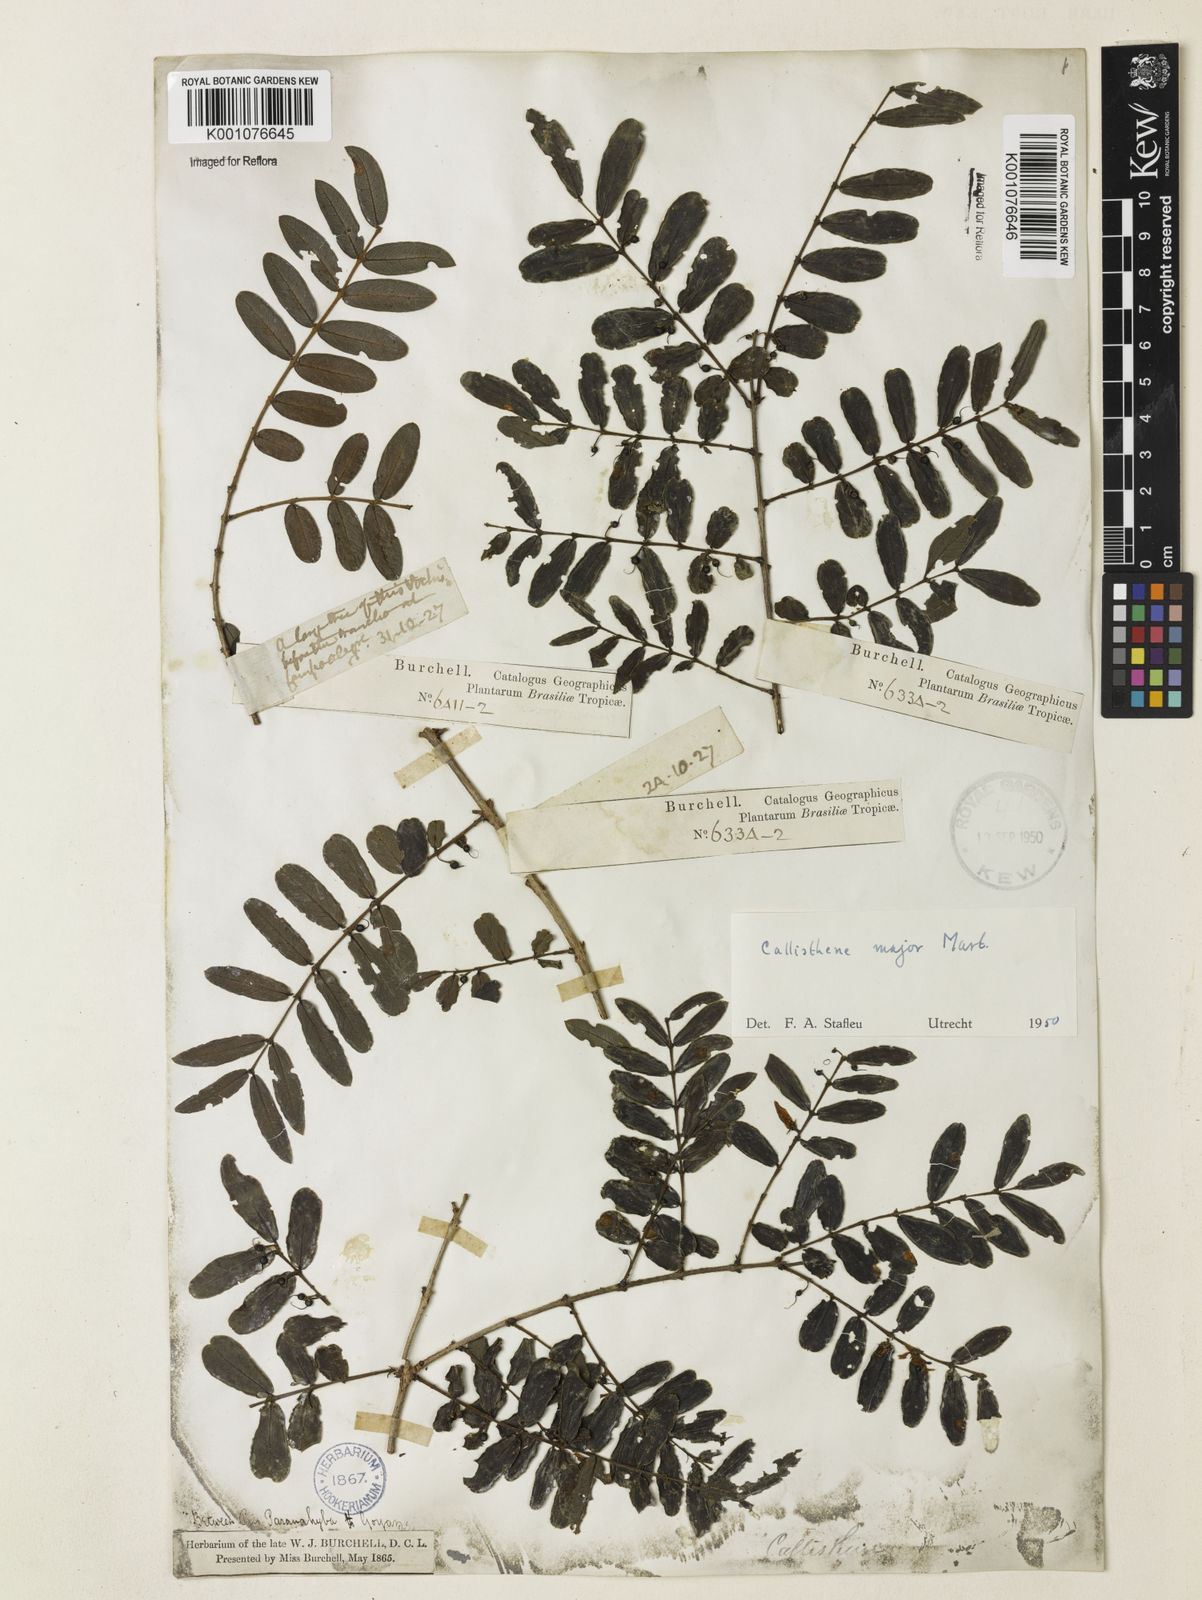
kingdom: Plantae
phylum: Tracheophyta
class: Magnoliopsida
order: Myrtales
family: Vochysiaceae
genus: Callisthene
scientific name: Callisthene major
